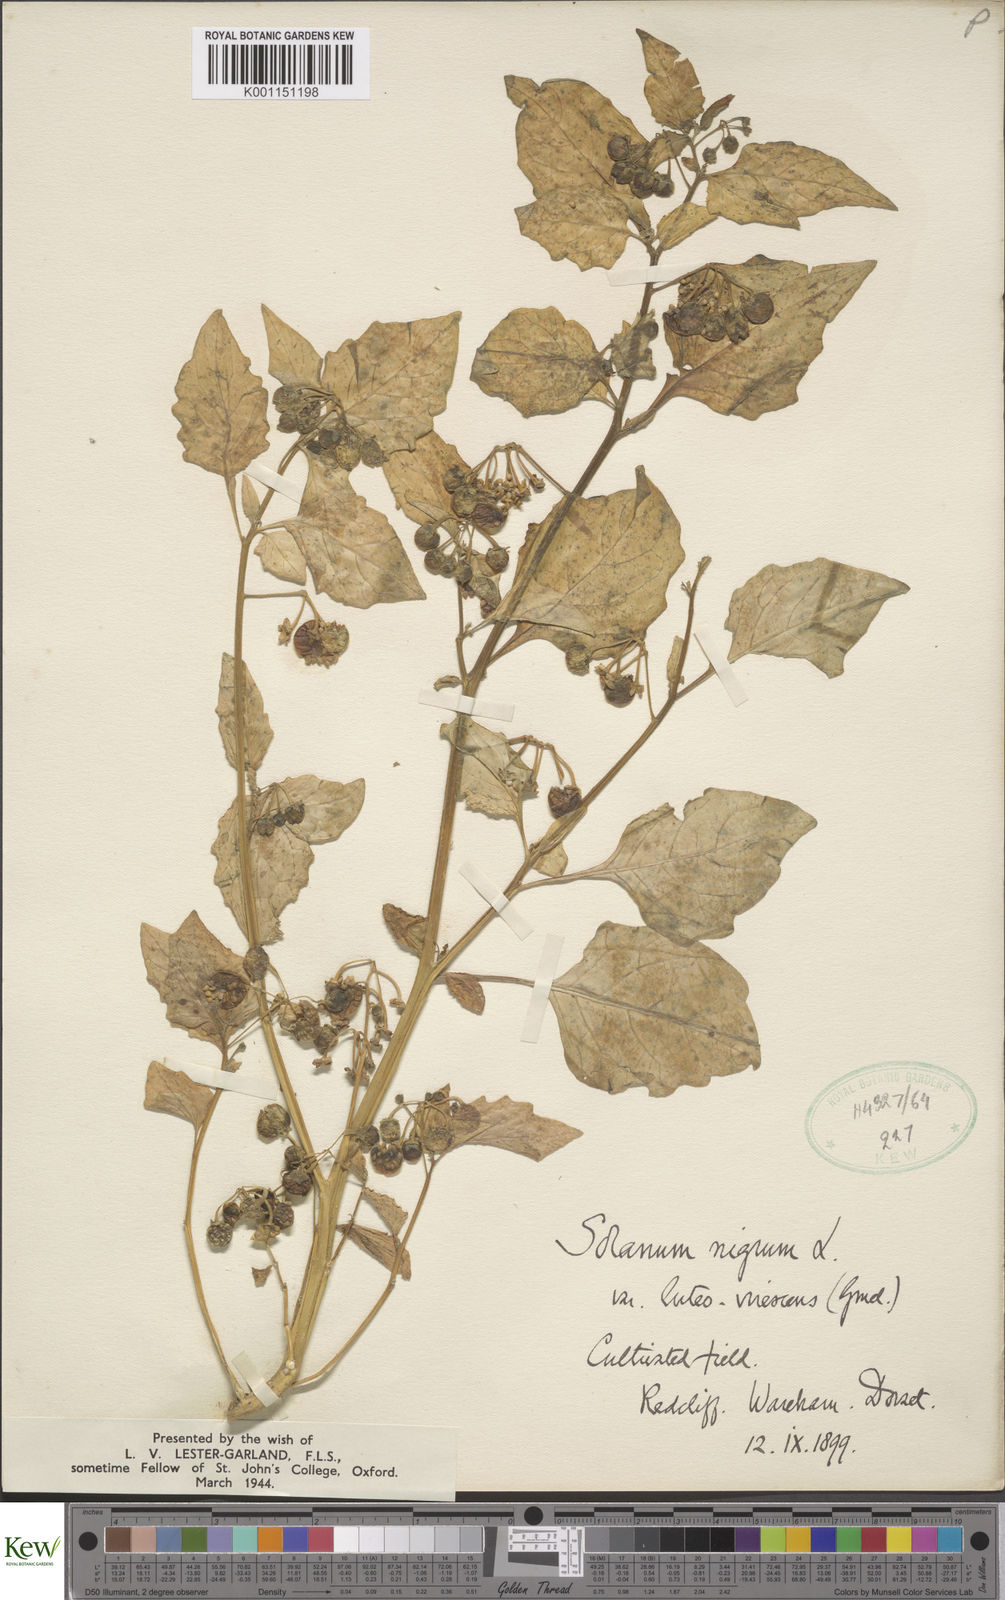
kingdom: Plantae
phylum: Tracheophyta
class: Magnoliopsida
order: Solanales
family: Solanaceae
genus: Solanum
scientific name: Solanum nigrum
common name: Black nightshade
